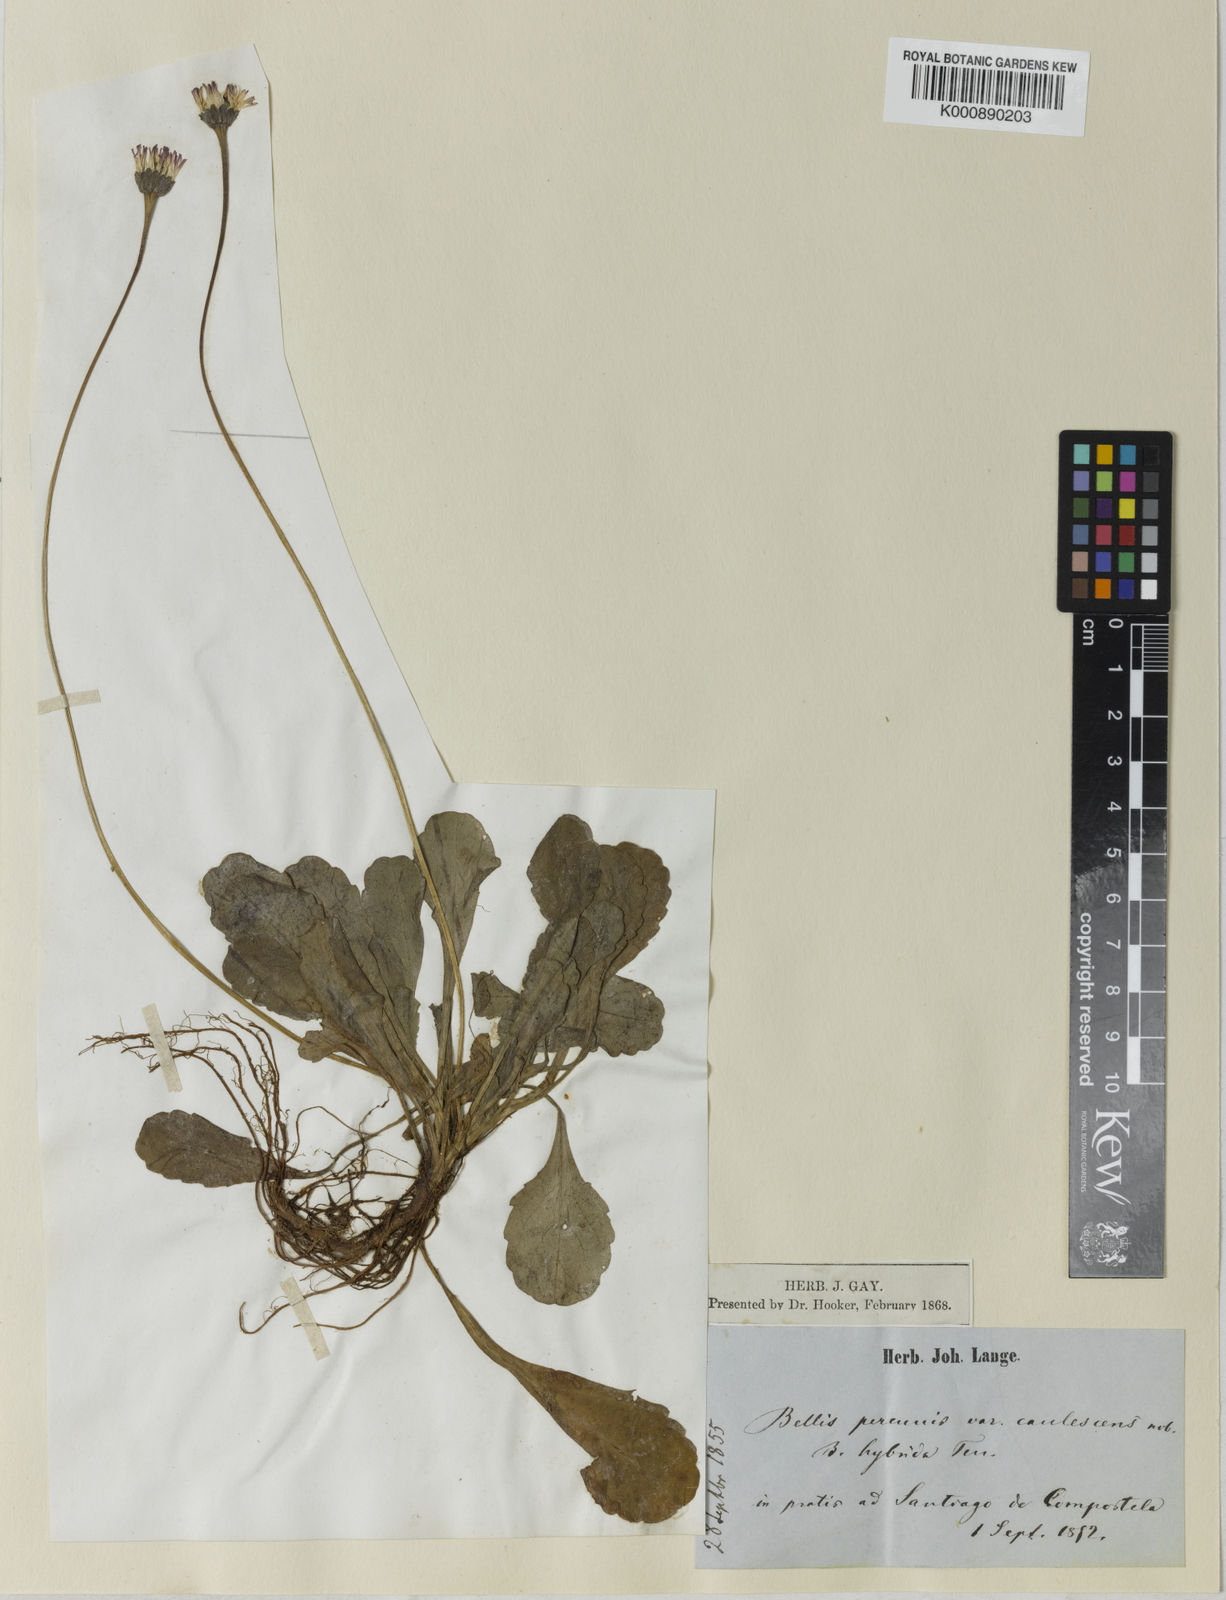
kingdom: Plantae
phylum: Tracheophyta
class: Magnoliopsida
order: Asterales
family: Asteraceae
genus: Bellis
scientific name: Bellis perennis
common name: Lawndaisy
